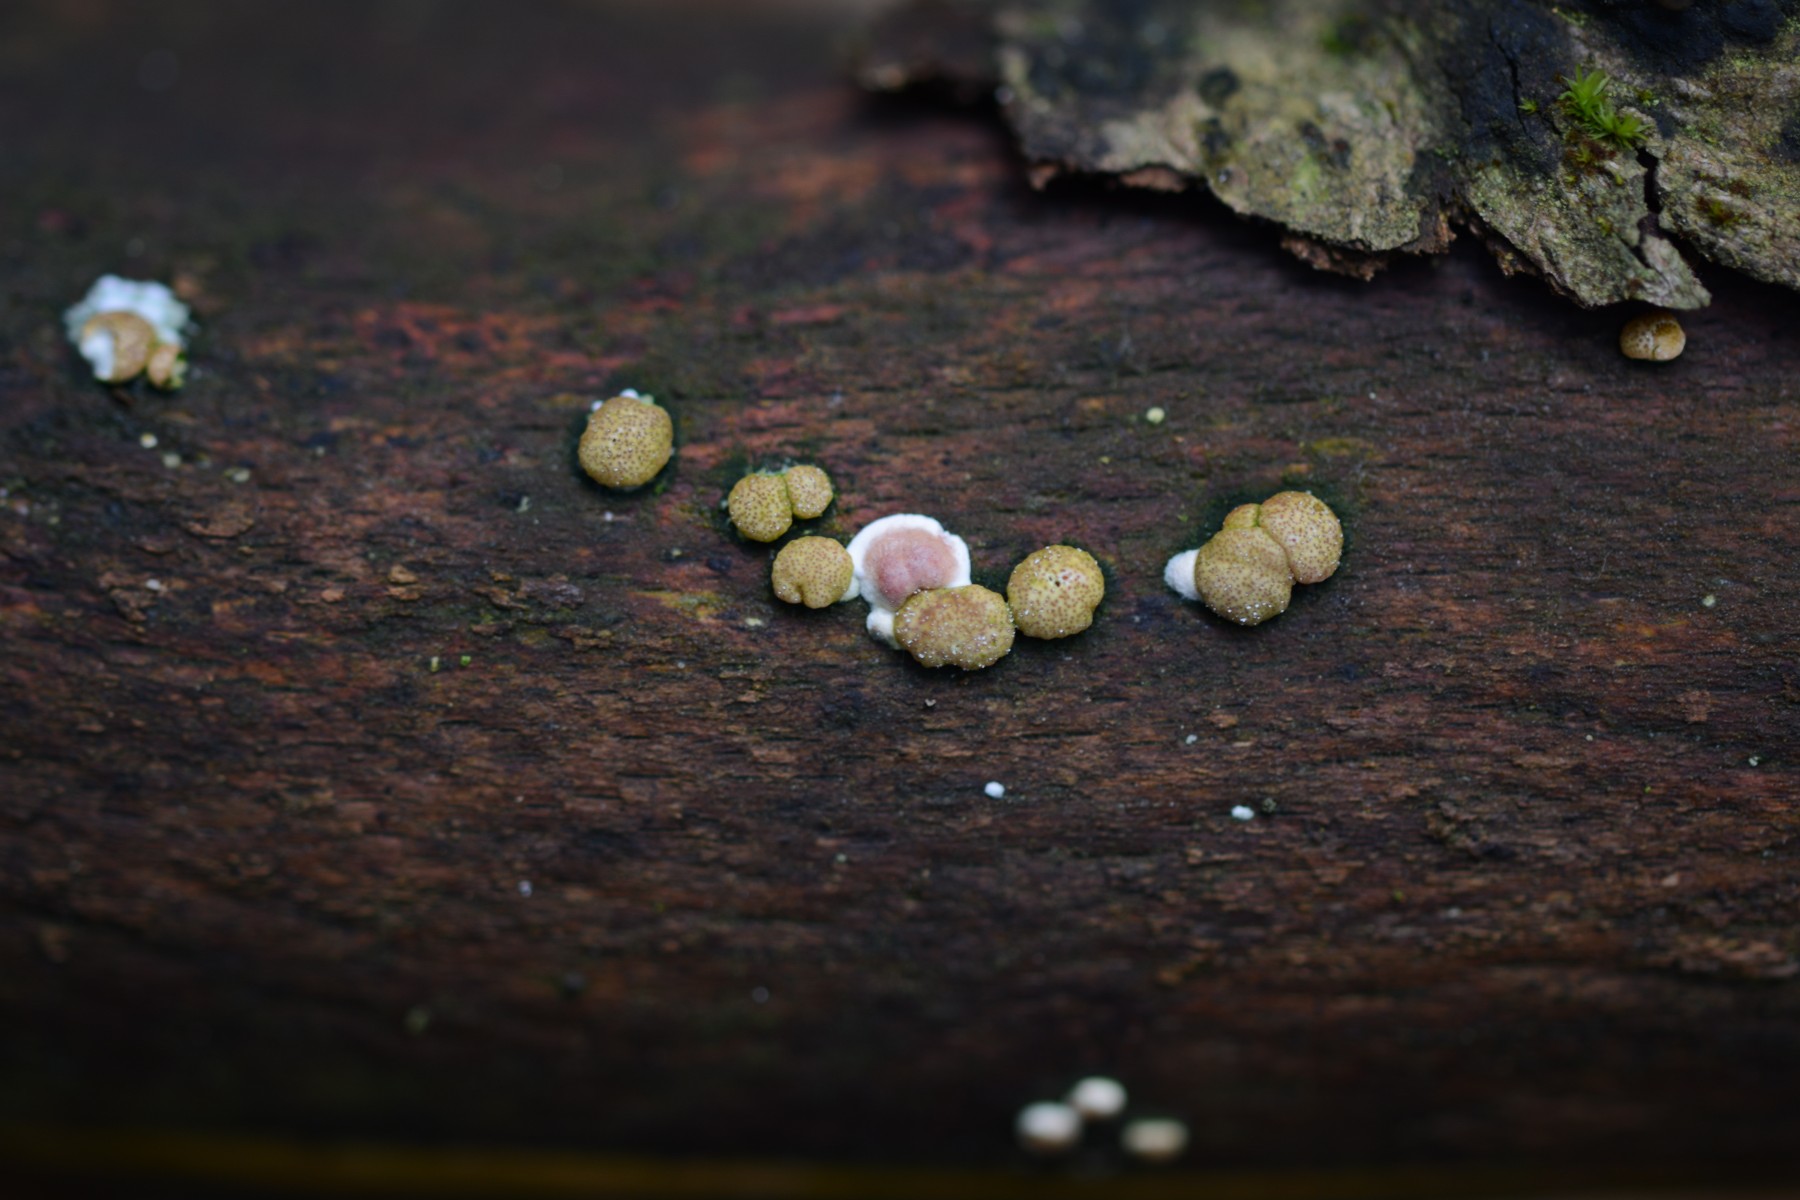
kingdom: Fungi
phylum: Ascomycota
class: Sordariomycetes
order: Hypocreales
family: Hypocreaceae
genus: Trichoderma
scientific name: Trichoderma
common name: kødkerne
